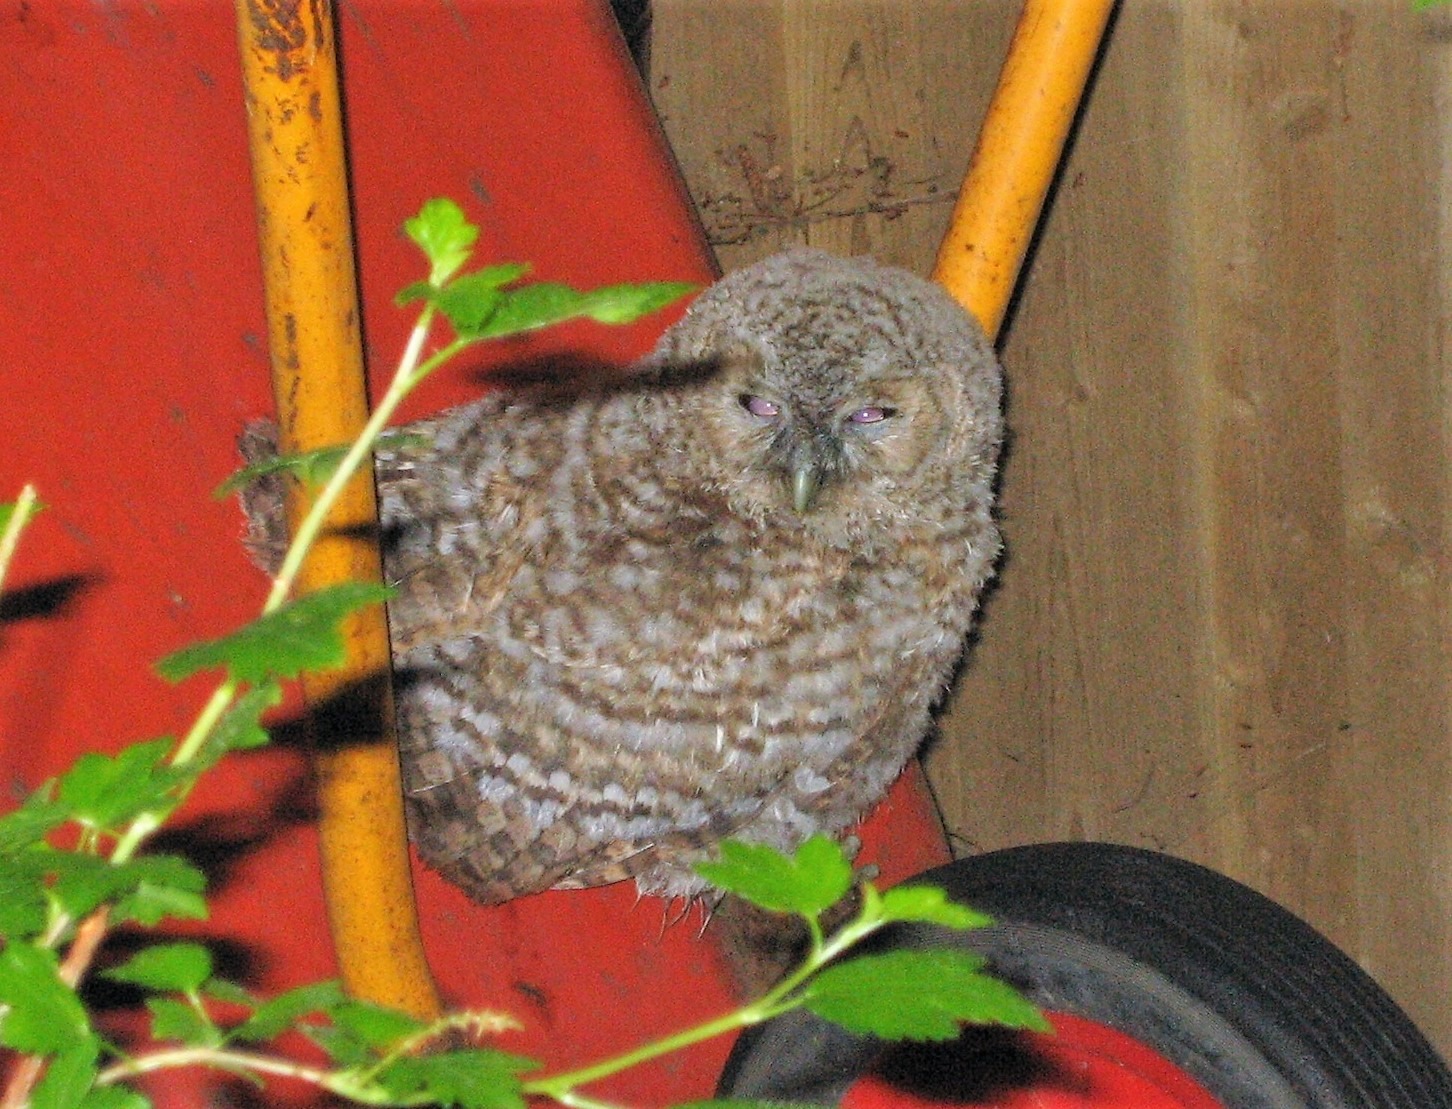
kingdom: Animalia
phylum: Chordata
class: Aves
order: Strigiformes
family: Strigidae
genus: Strix
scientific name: Strix aluco
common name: Natugle
